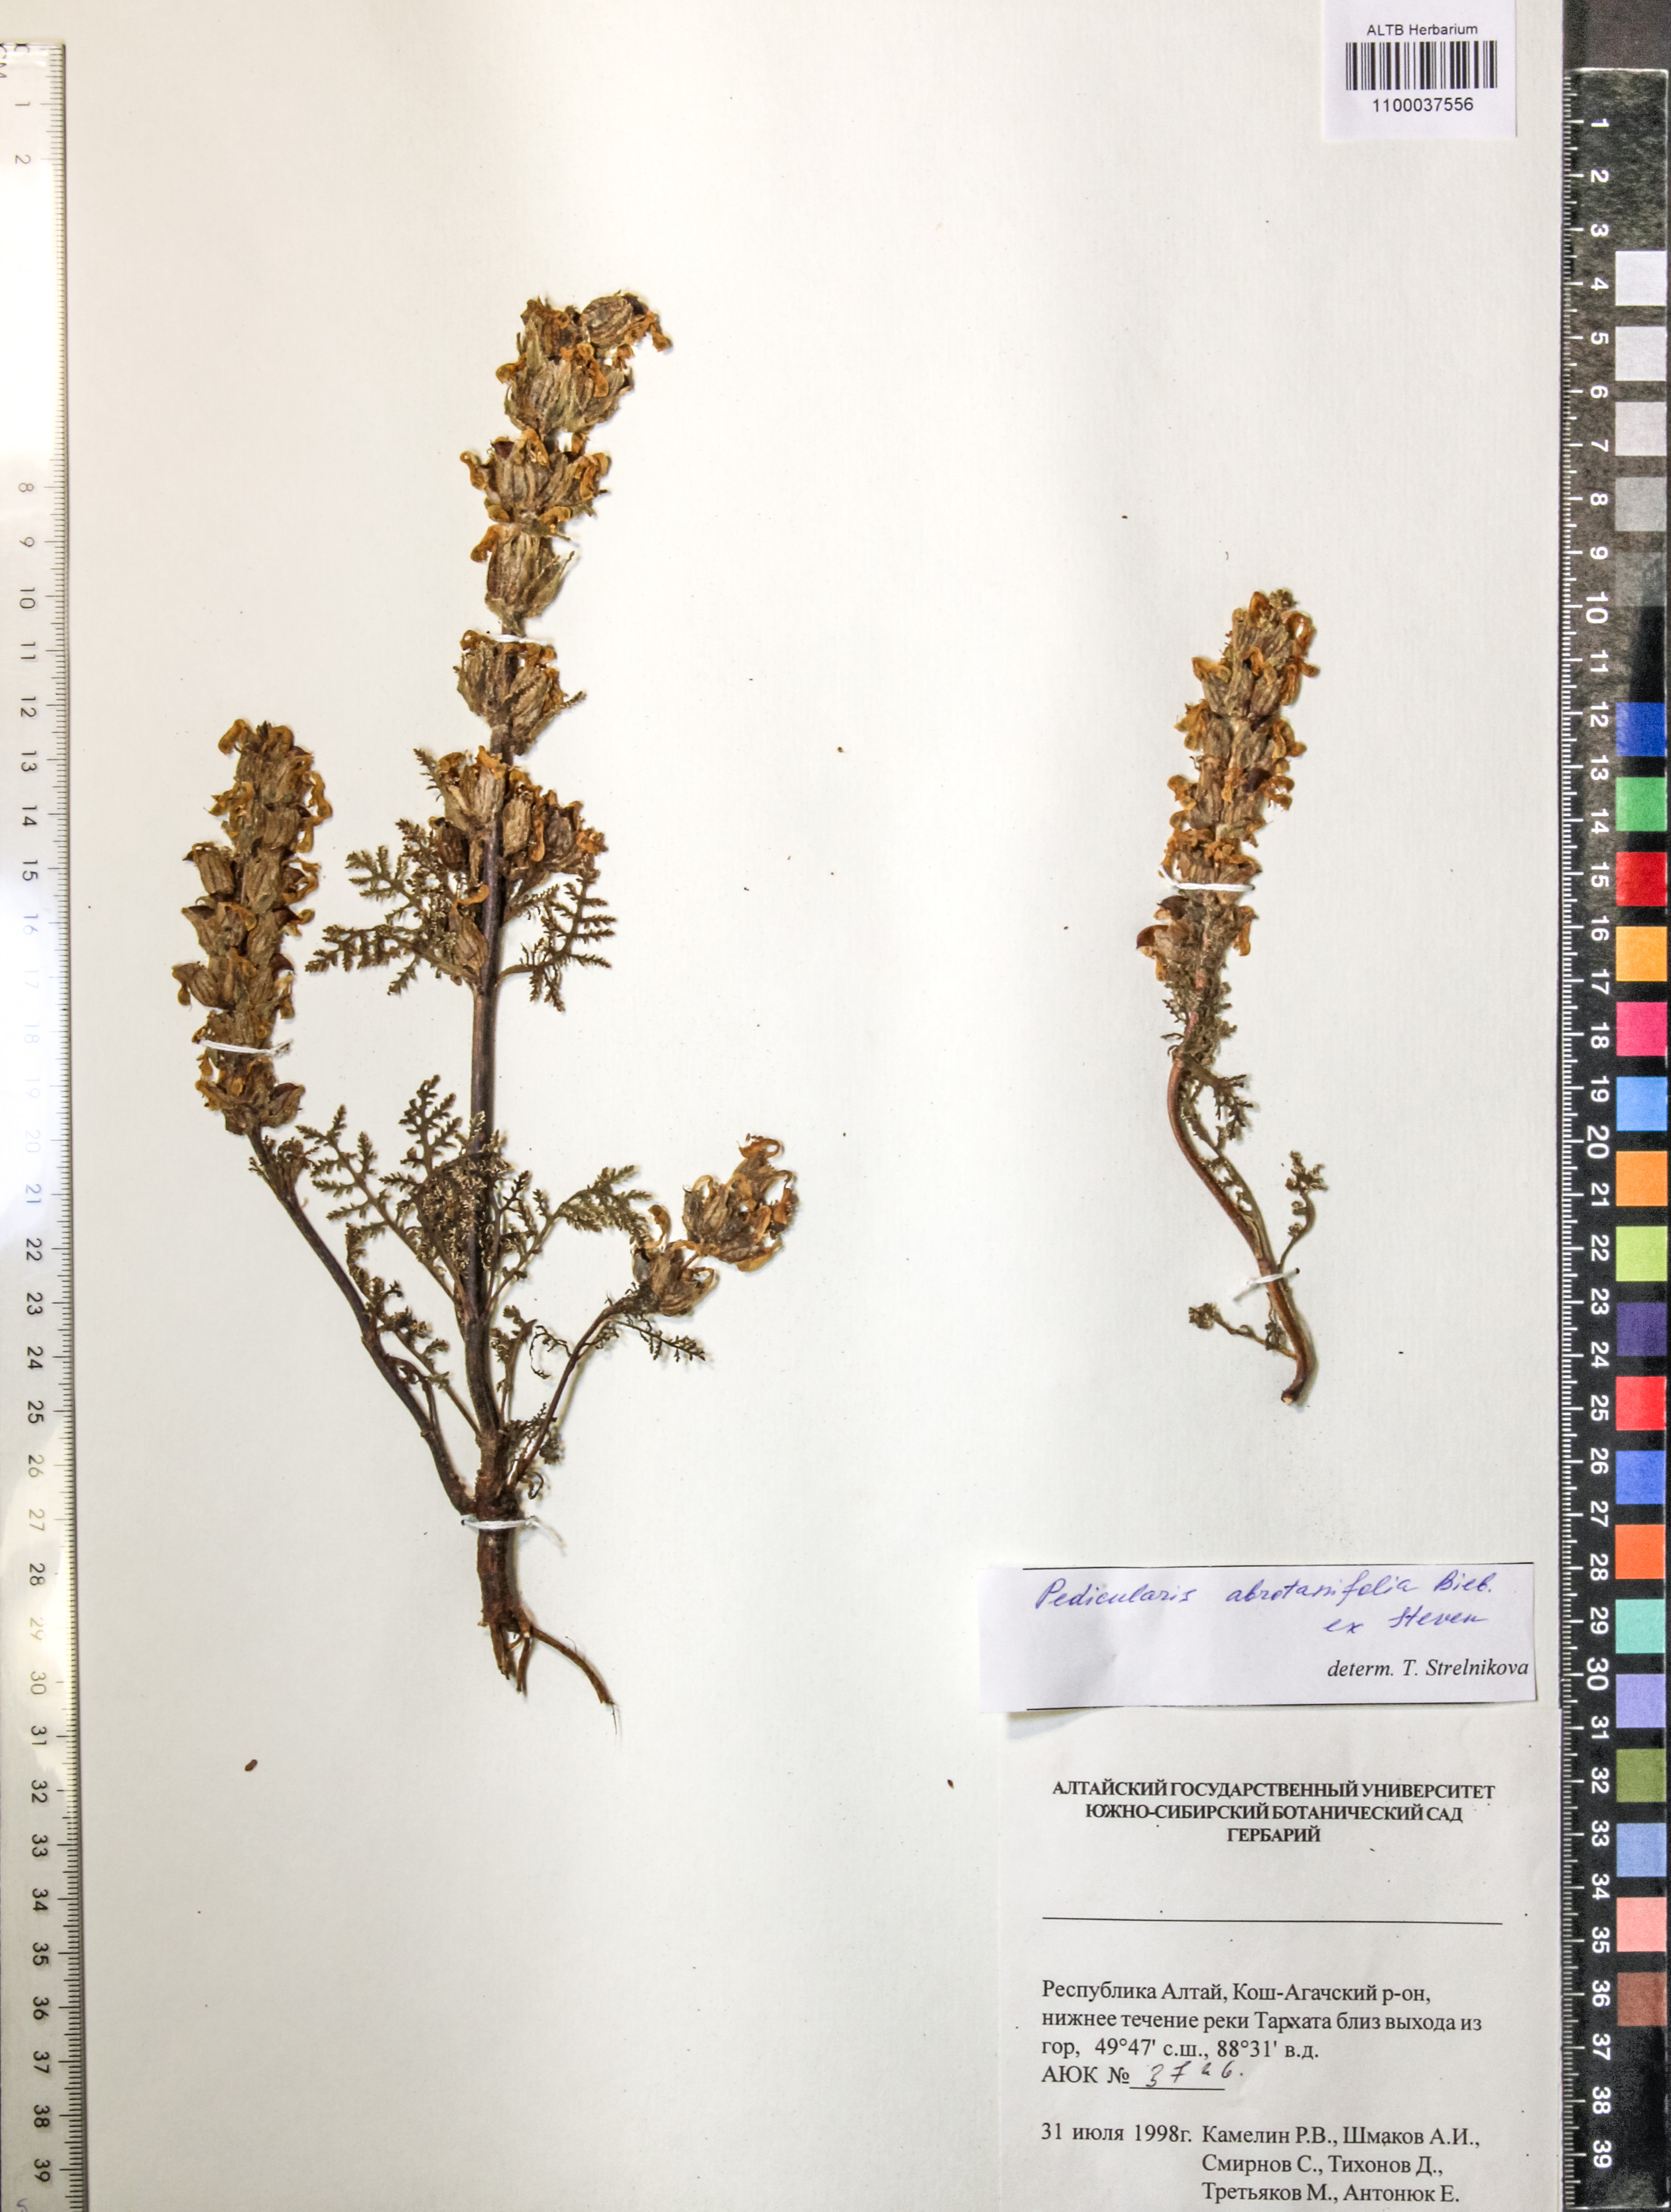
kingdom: Plantae
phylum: Tracheophyta
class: Magnoliopsida
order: Lamiales
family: Orobanchaceae
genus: Pedicularis
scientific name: Pedicularis abrotanifolia
